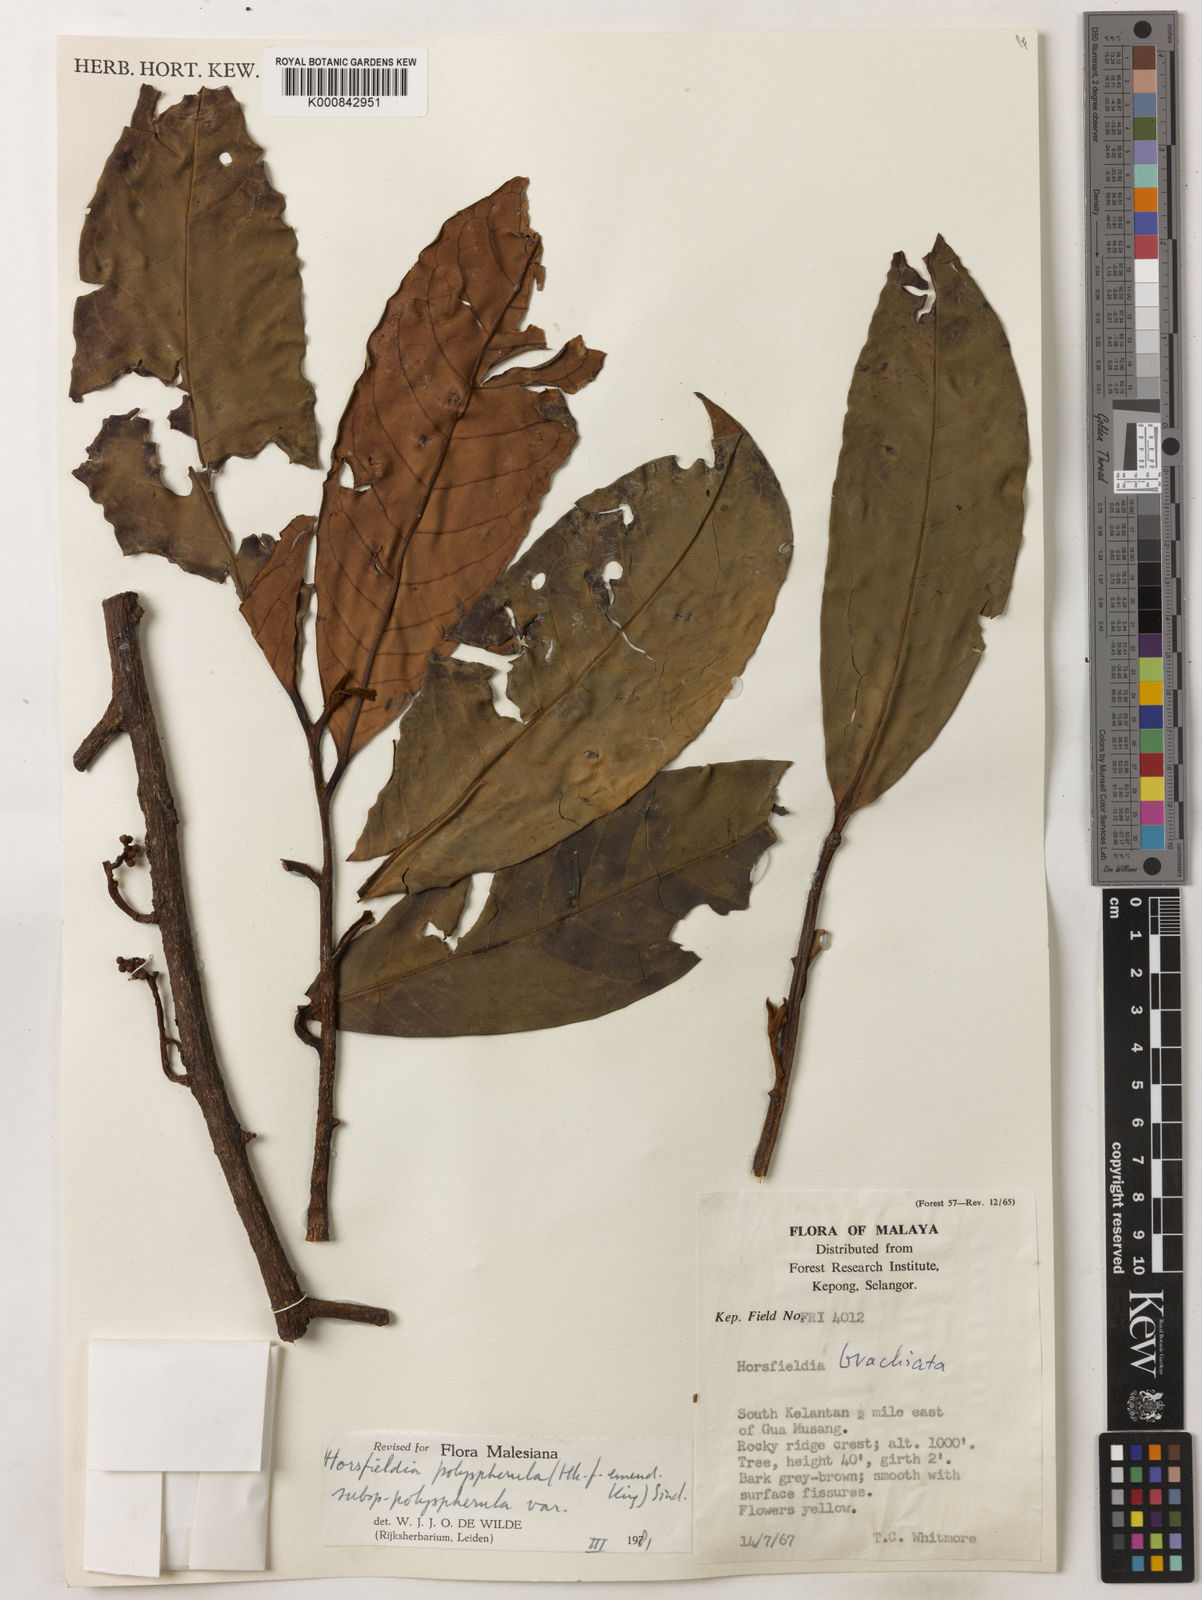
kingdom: Plantae
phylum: Tracheophyta
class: Magnoliopsida
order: Magnoliales
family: Myristicaceae
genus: Horsfieldia
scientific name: Horsfieldia
